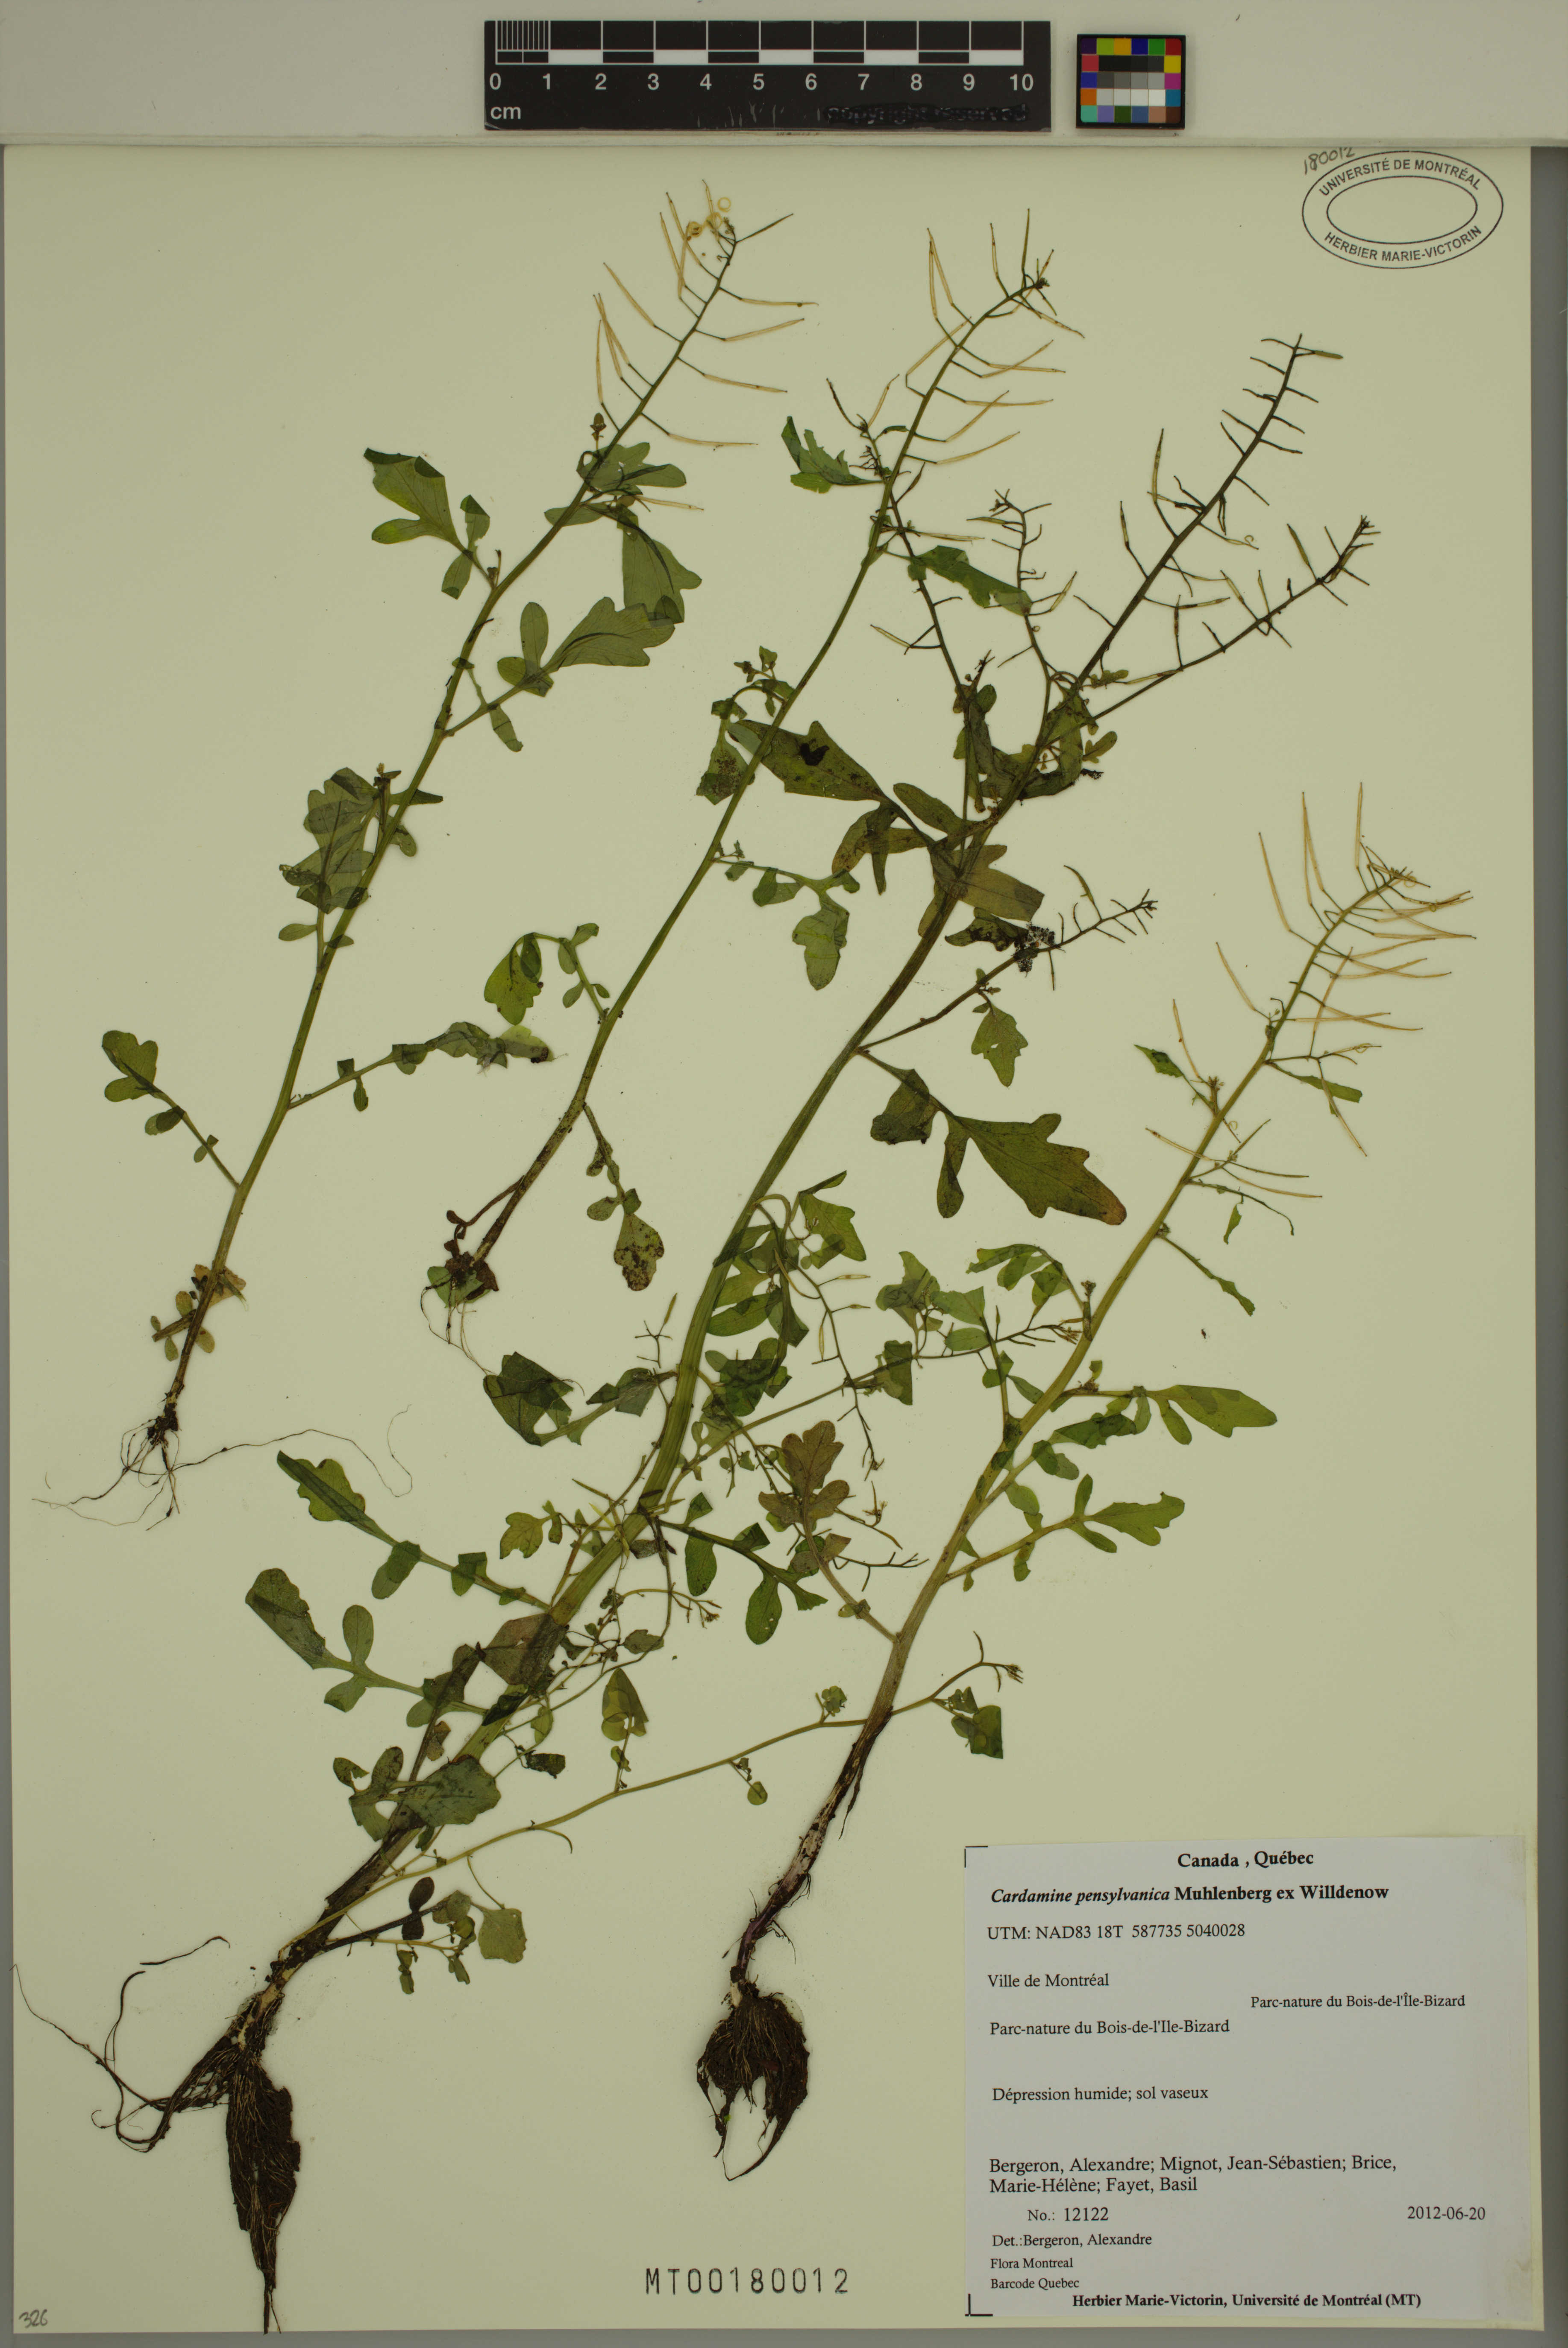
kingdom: Plantae
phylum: Tracheophyta
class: Magnoliopsida
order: Brassicales
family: Brassicaceae
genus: Cardamine
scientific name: Cardamine pensylvanica
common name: Pennsylvania bittercress
